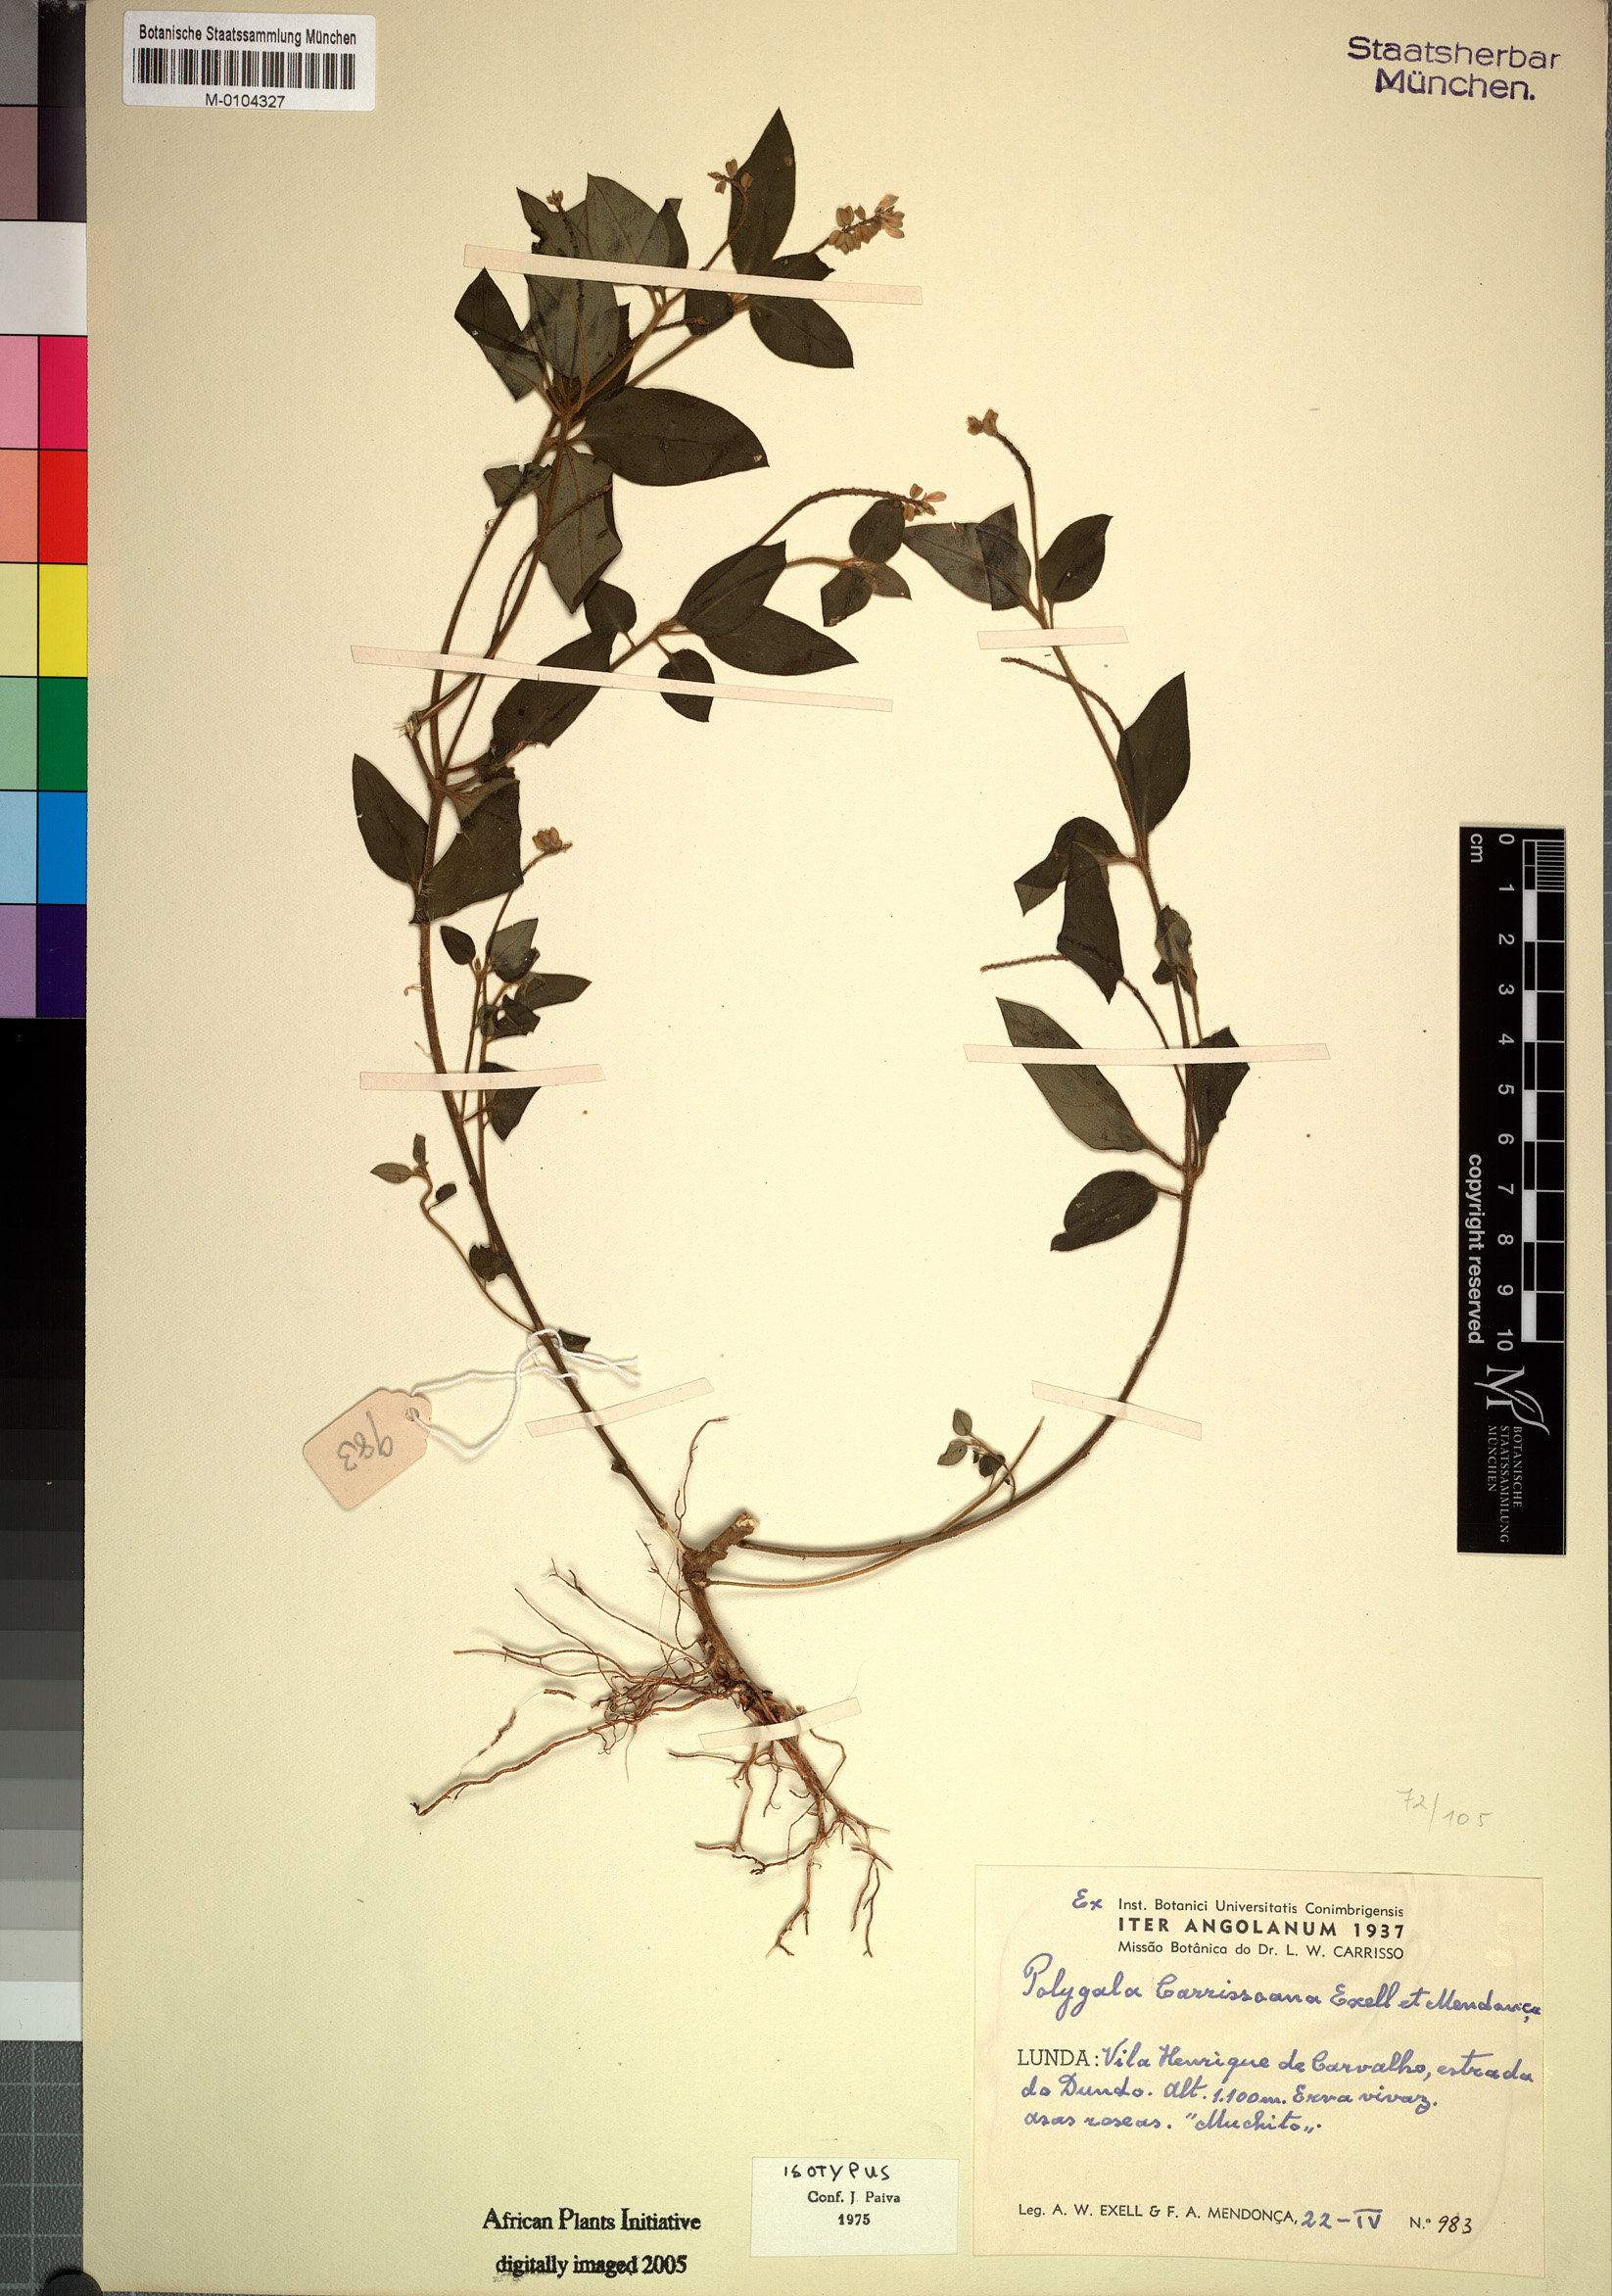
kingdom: Plantae
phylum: Tracheophyta
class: Magnoliopsida
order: Fabales
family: Polygalaceae
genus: Polygala
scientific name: Polygala carrissoana
